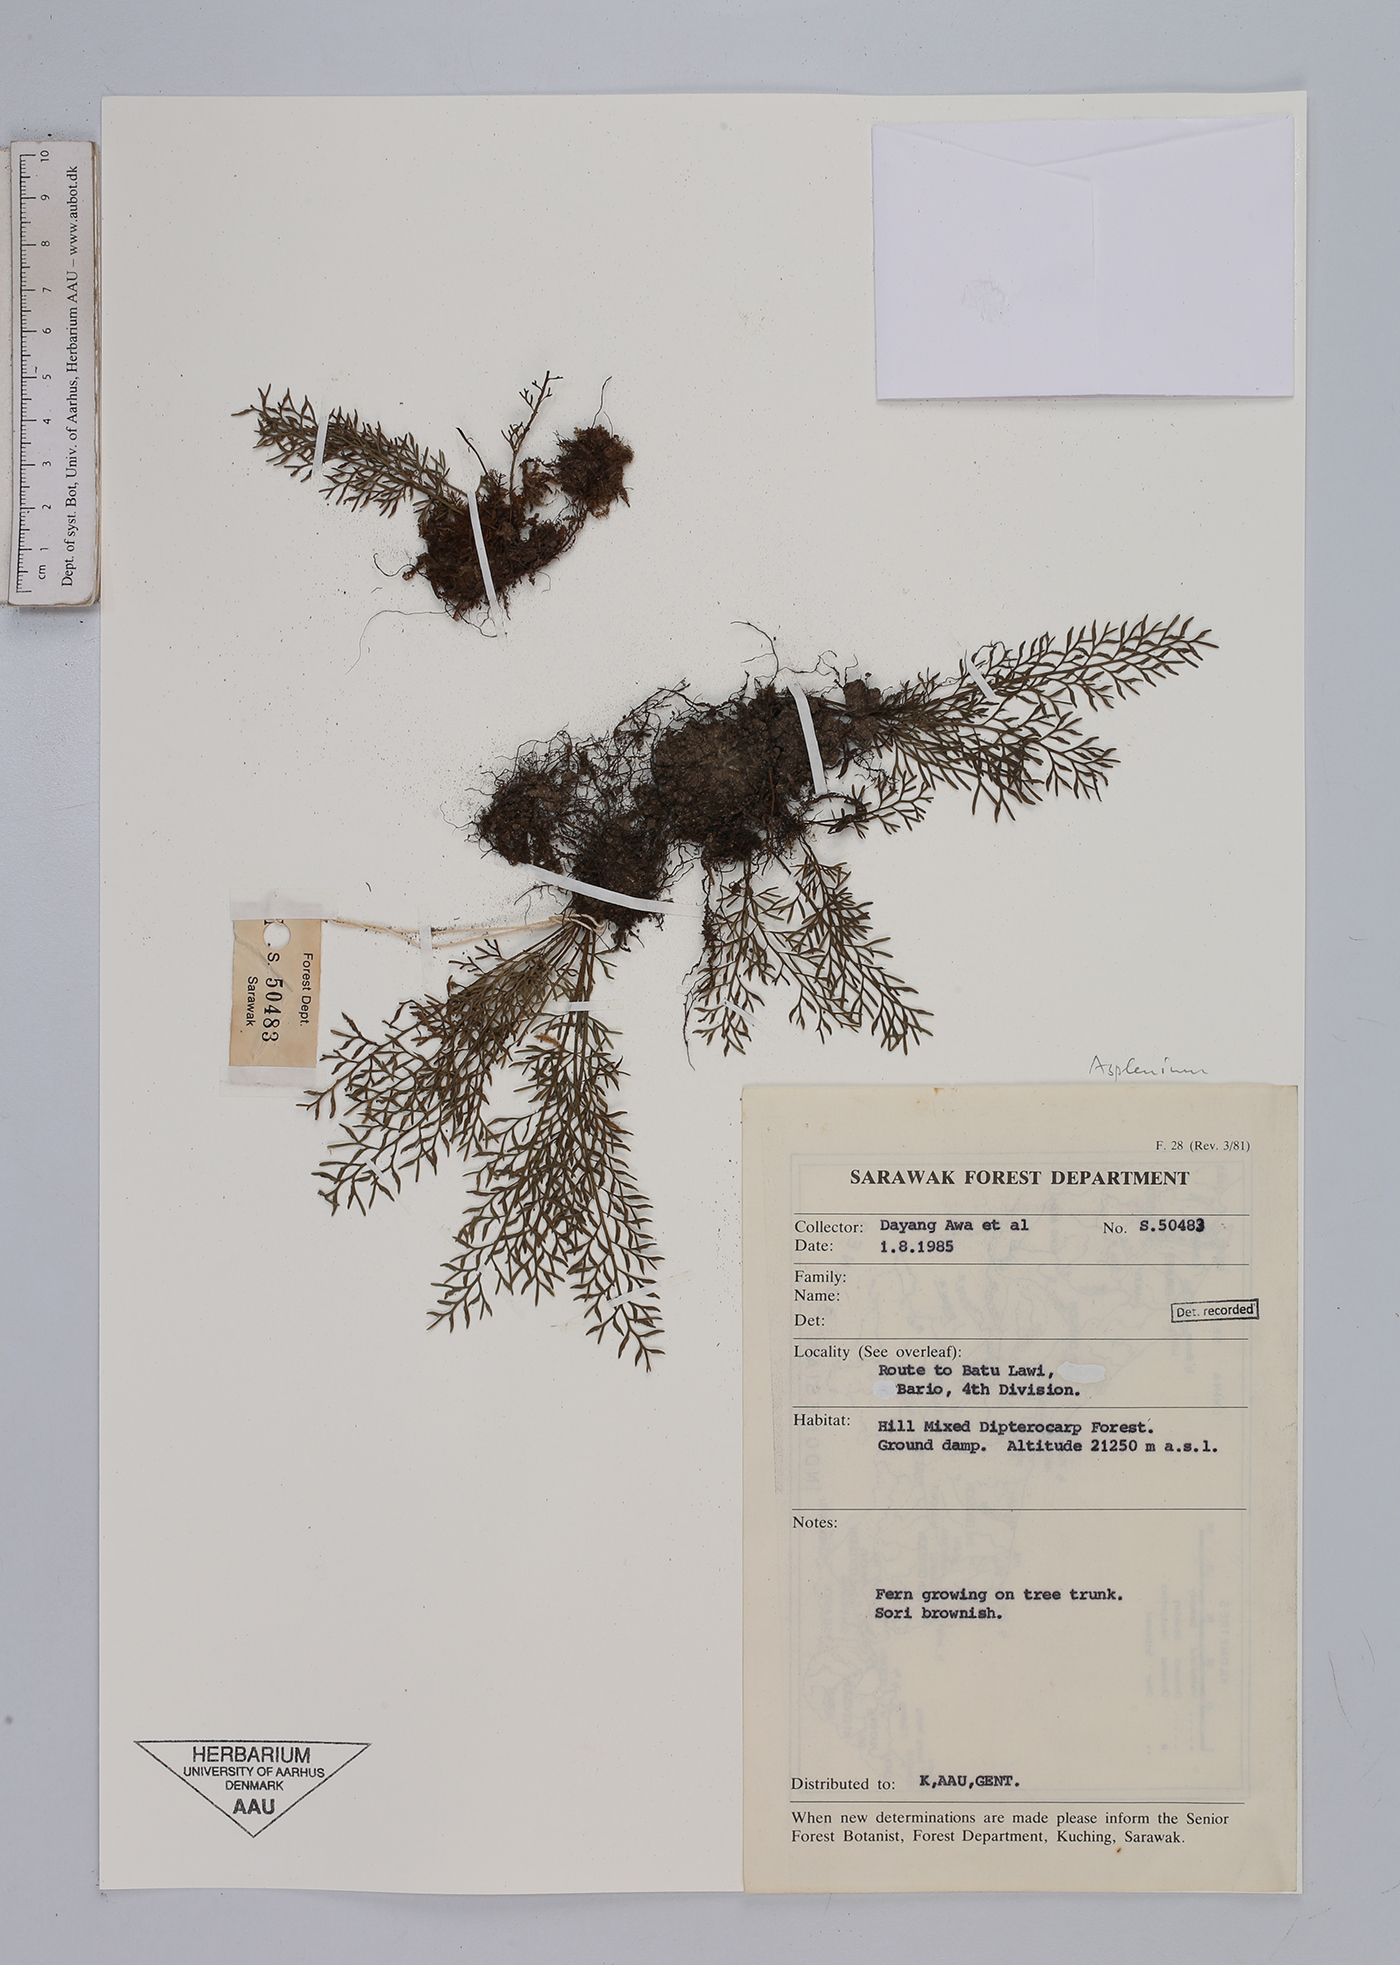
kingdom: Plantae
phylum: Tracheophyta
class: Polypodiopsida
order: Polypodiales
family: Aspleniaceae
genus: Asplenium
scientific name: Asplenium
